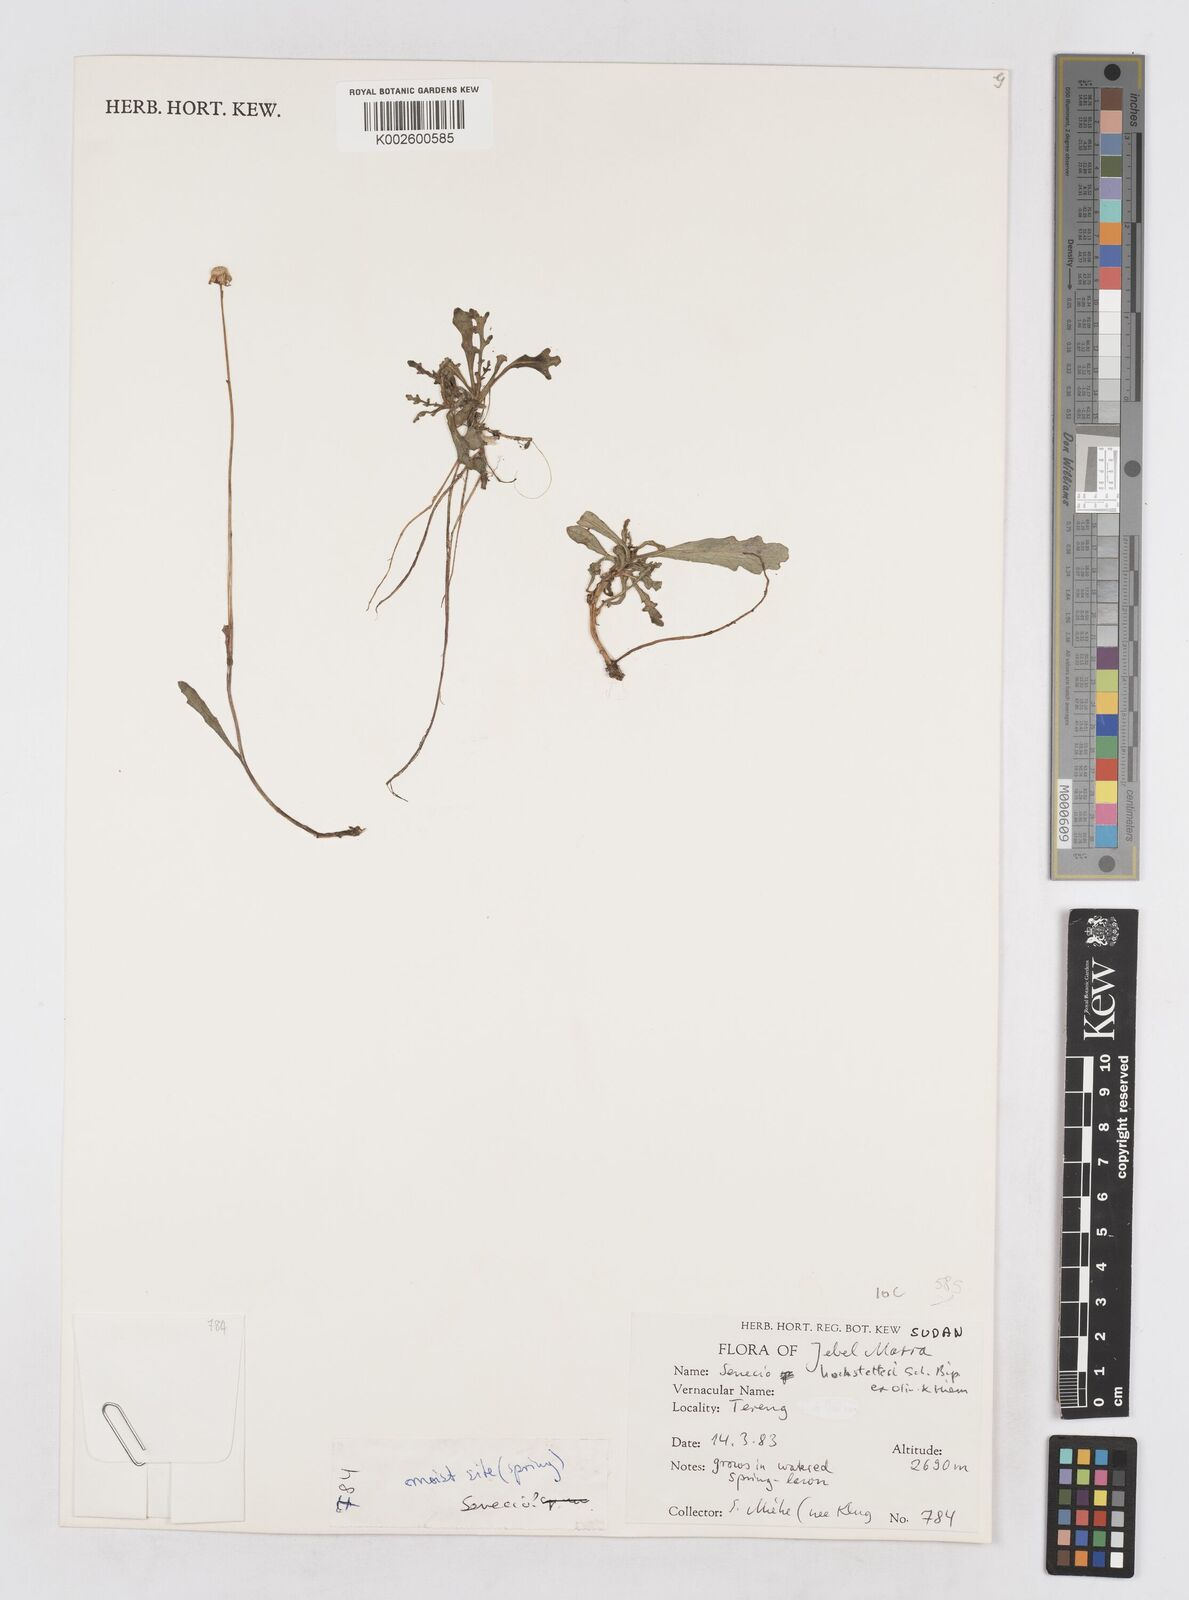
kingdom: Plantae
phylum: Tracheophyta
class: Magnoliopsida
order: Asterales
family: Asteraceae
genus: Senecio
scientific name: Senecio hochstetteri
